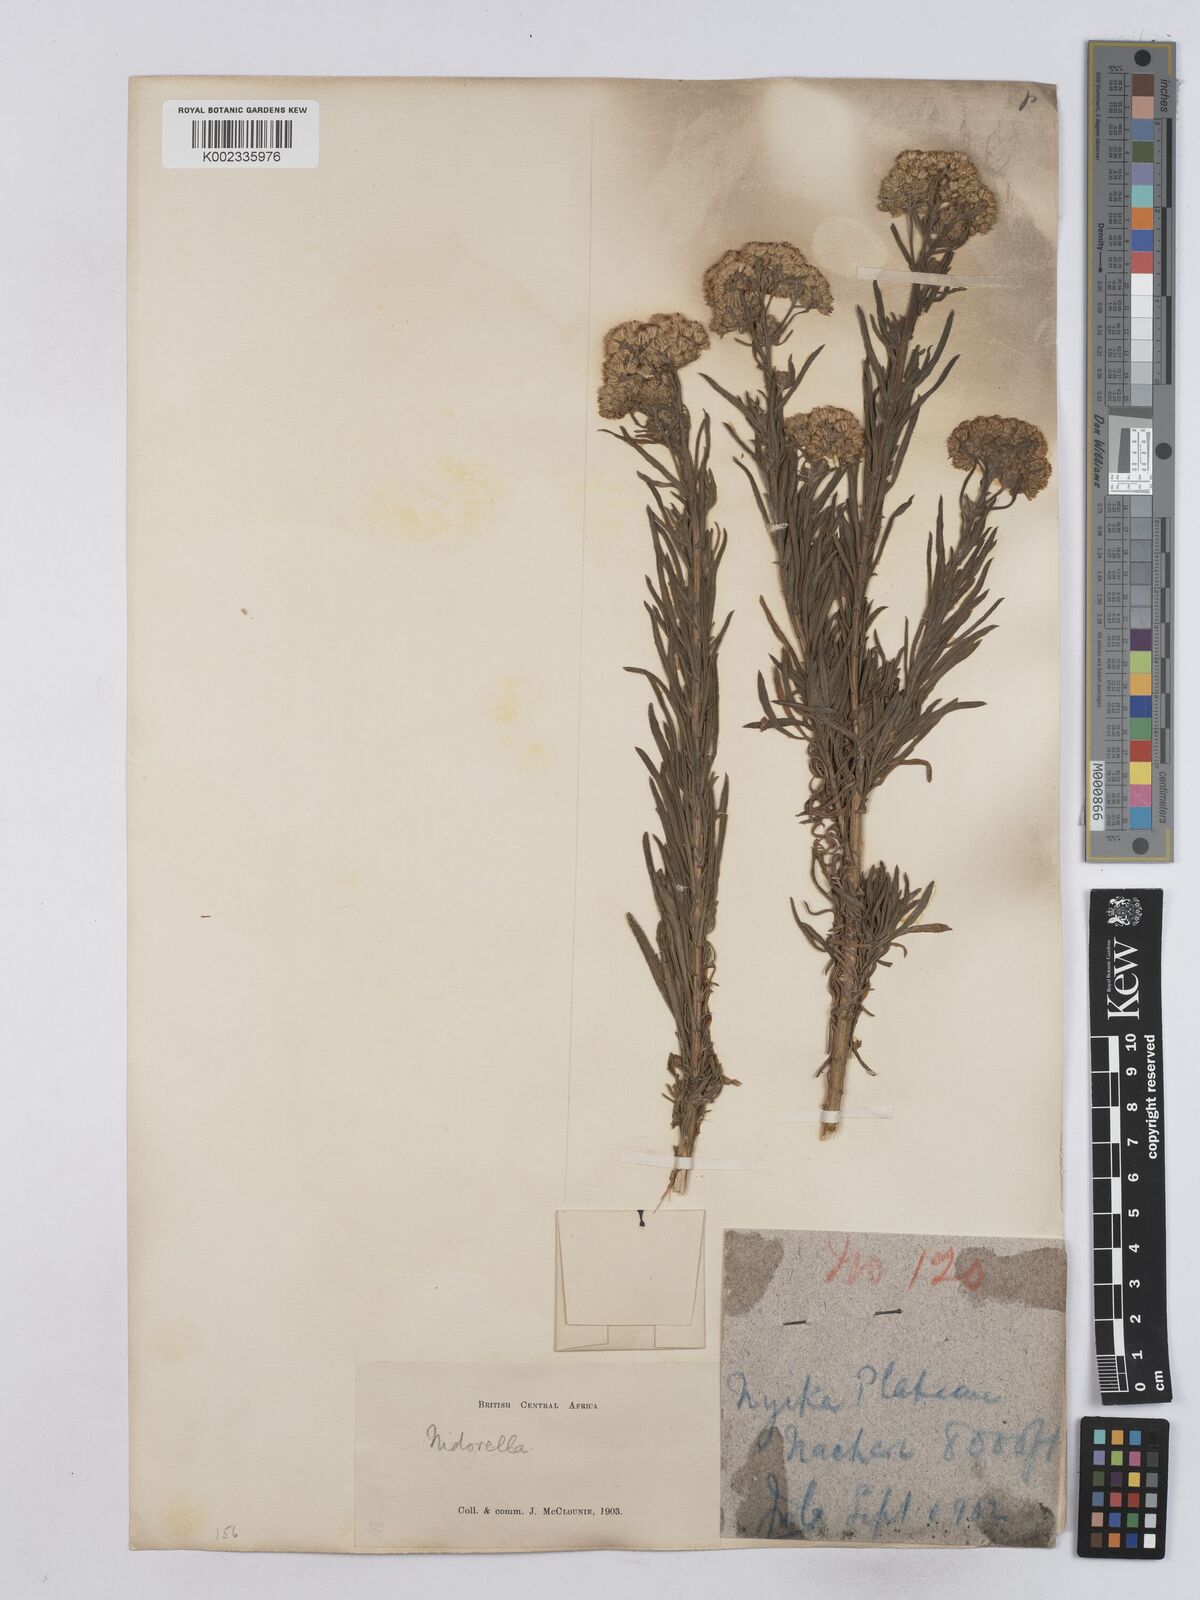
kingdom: Plantae
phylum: Tracheophyta
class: Magnoliopsida
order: Asterales
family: Asteraceae
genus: Nidorella
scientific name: Nidorella welwitschii
